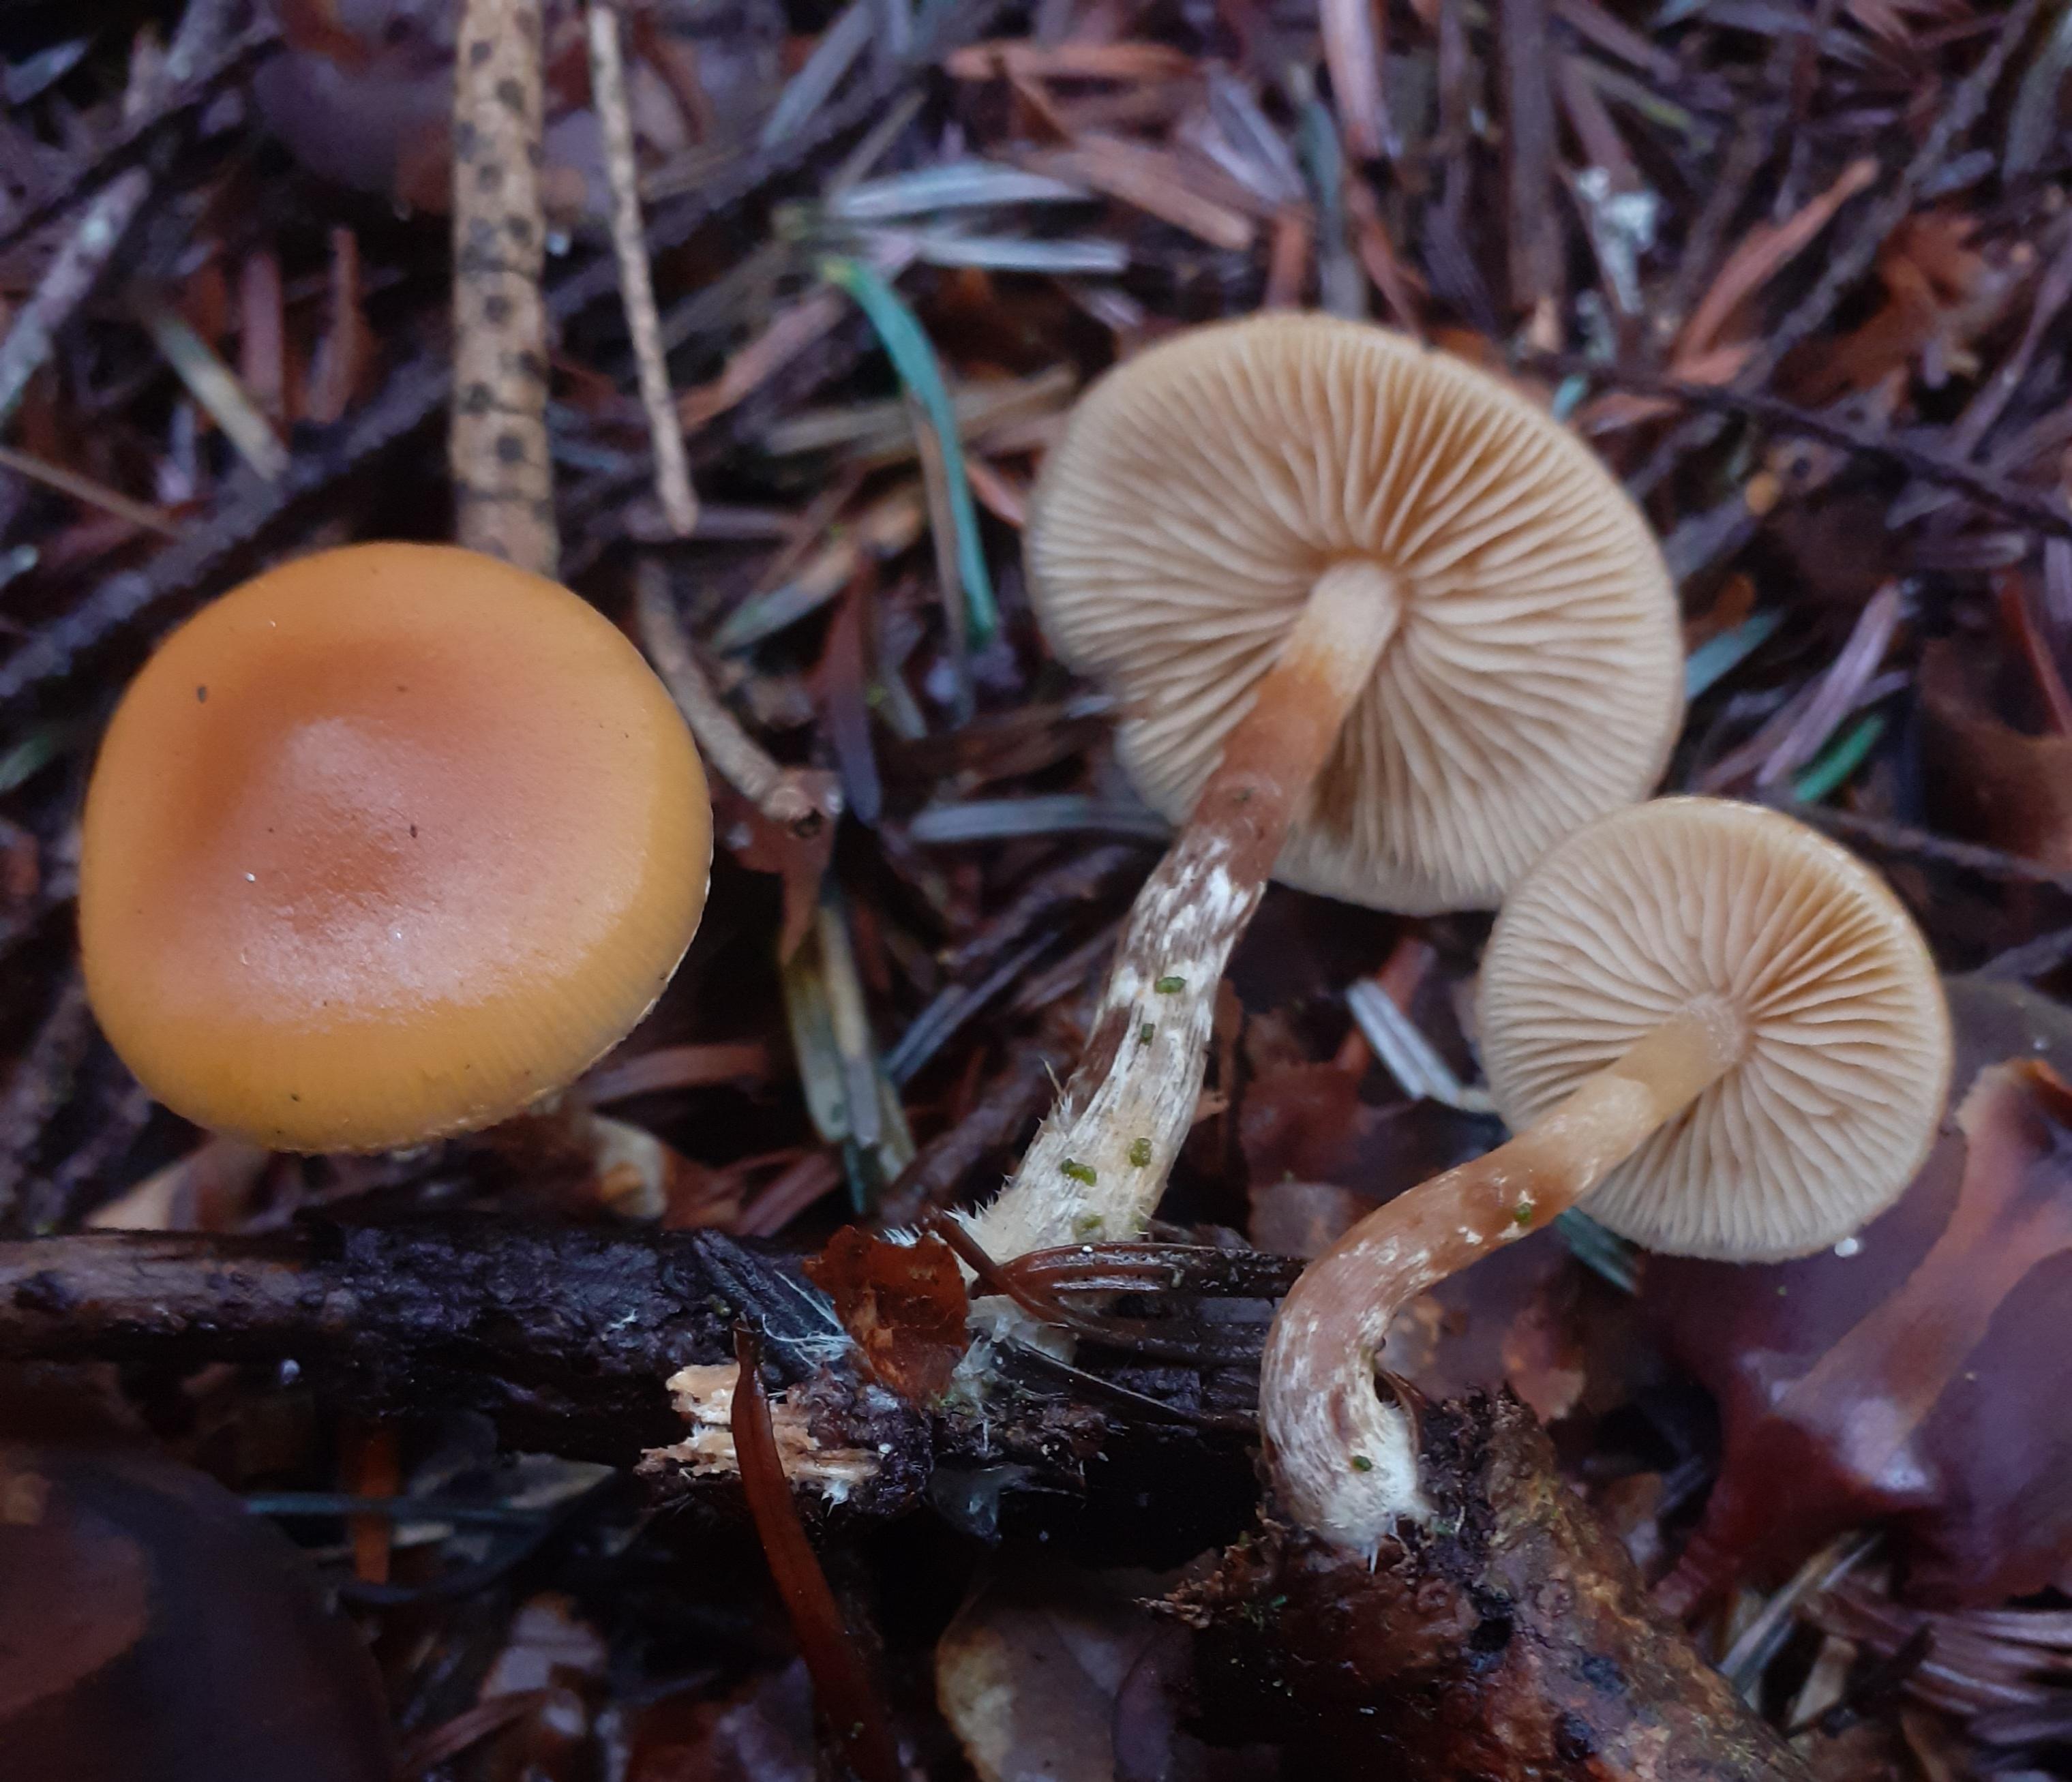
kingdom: Fungi
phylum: Basidiomycota
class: Agaricomycetes
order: Agaricales
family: Hymenogastraceae
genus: Galerina
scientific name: Galerina marginata
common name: randbæltet hjelmhat
